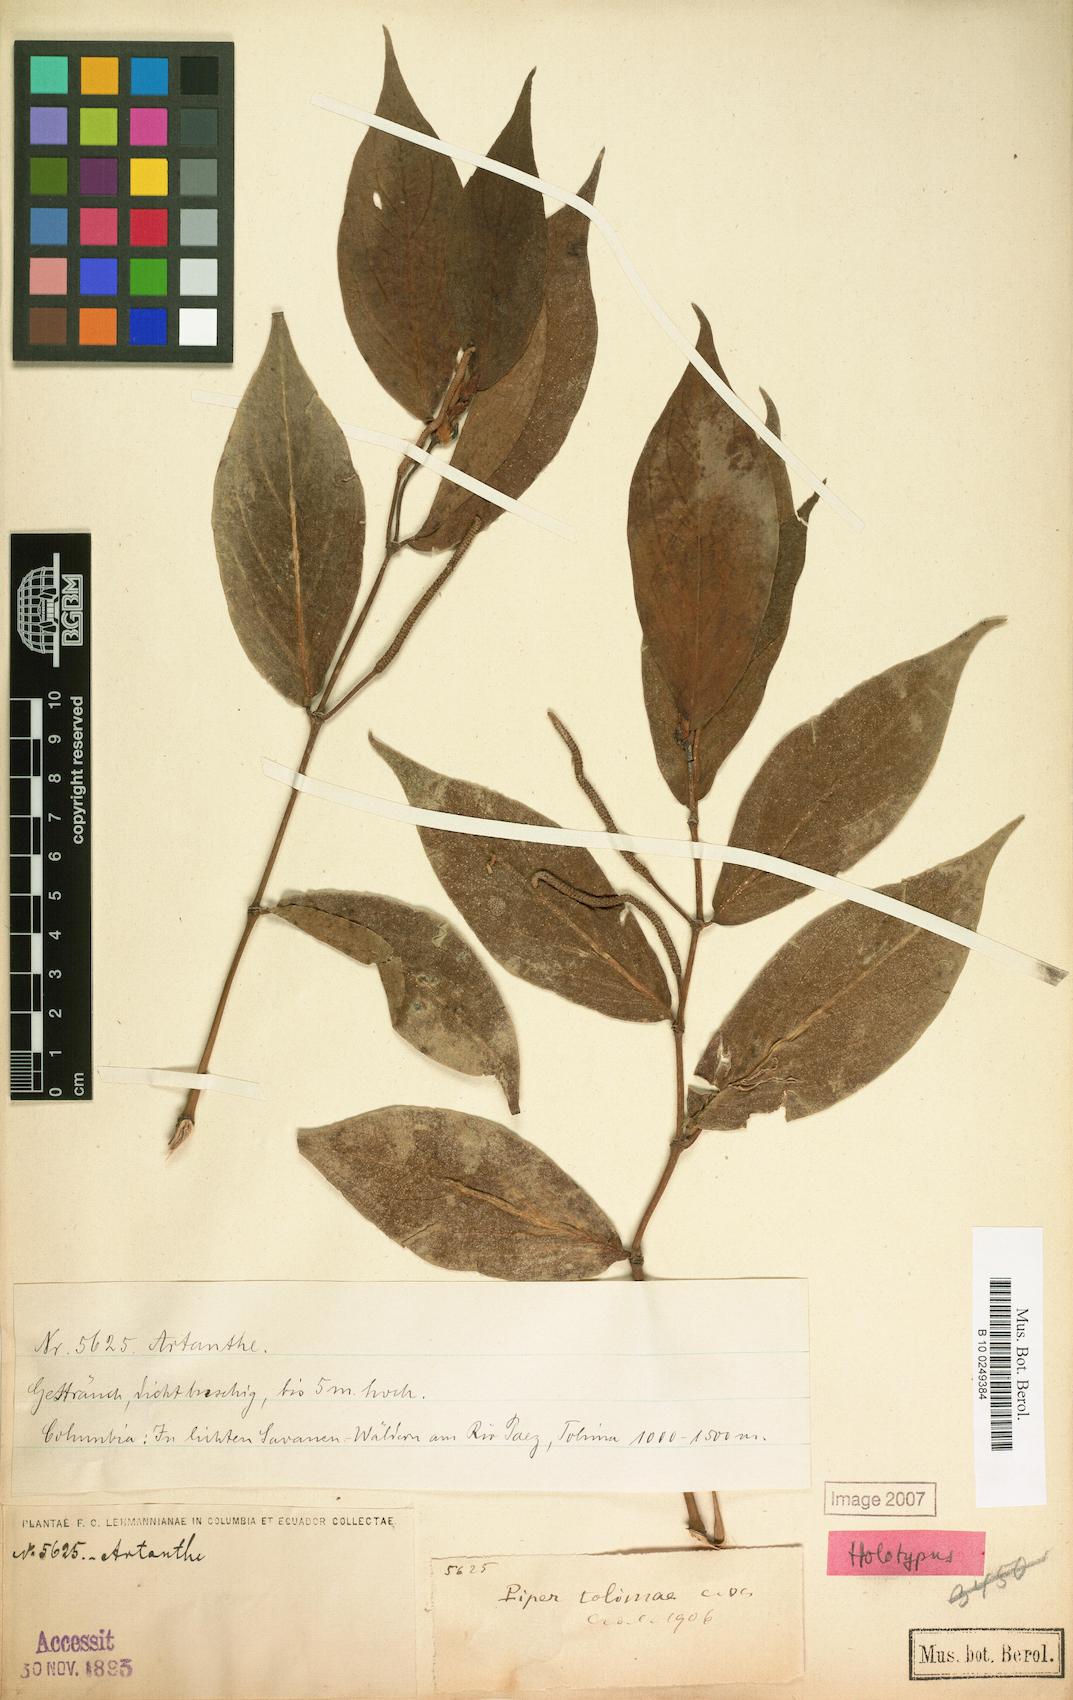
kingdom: Plantae
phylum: Tracheophyta
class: Magnoliopsida
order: Piperales
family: Piperaceae
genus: Piper
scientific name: Piper variegatum
